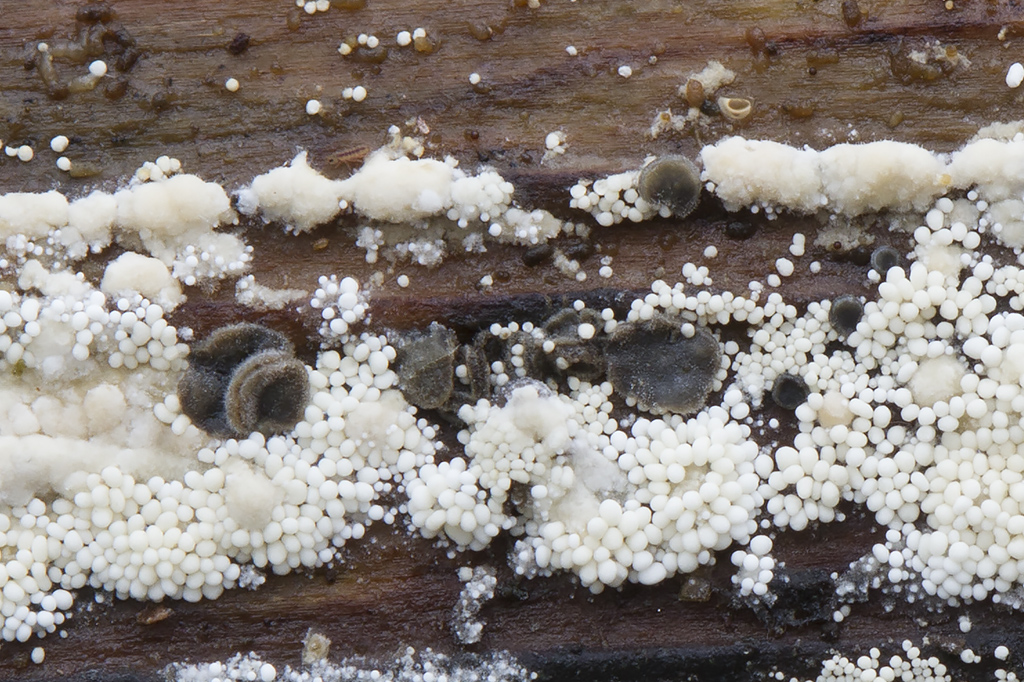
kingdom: Fungi
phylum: Basidiomycota
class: Agaricomycetes
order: Polyporales
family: Meruliaceae
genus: Bulbillomyces
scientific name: Bulbillomyces farinosus
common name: æg-kalkskind
